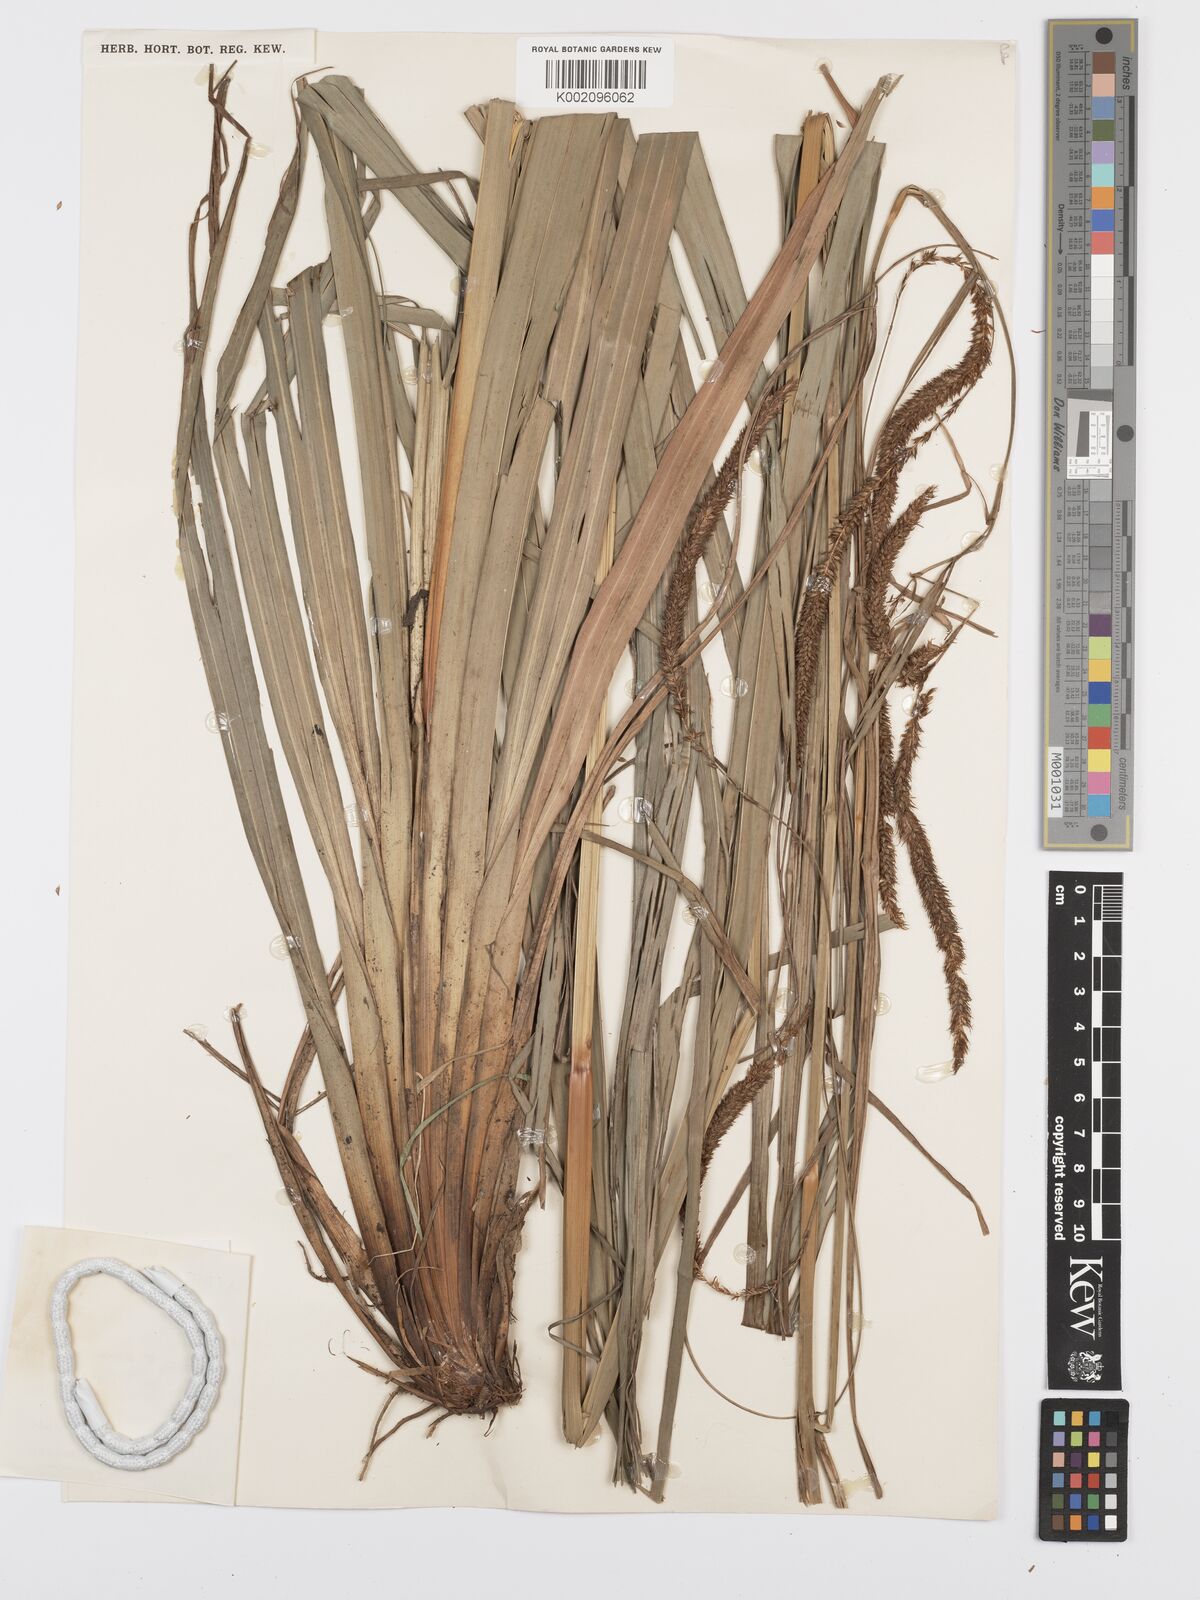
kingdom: Plantae
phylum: Tracheophyta
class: Liliopsida
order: Poales
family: Cyperaceae
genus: Carex
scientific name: Carex bequaertii
